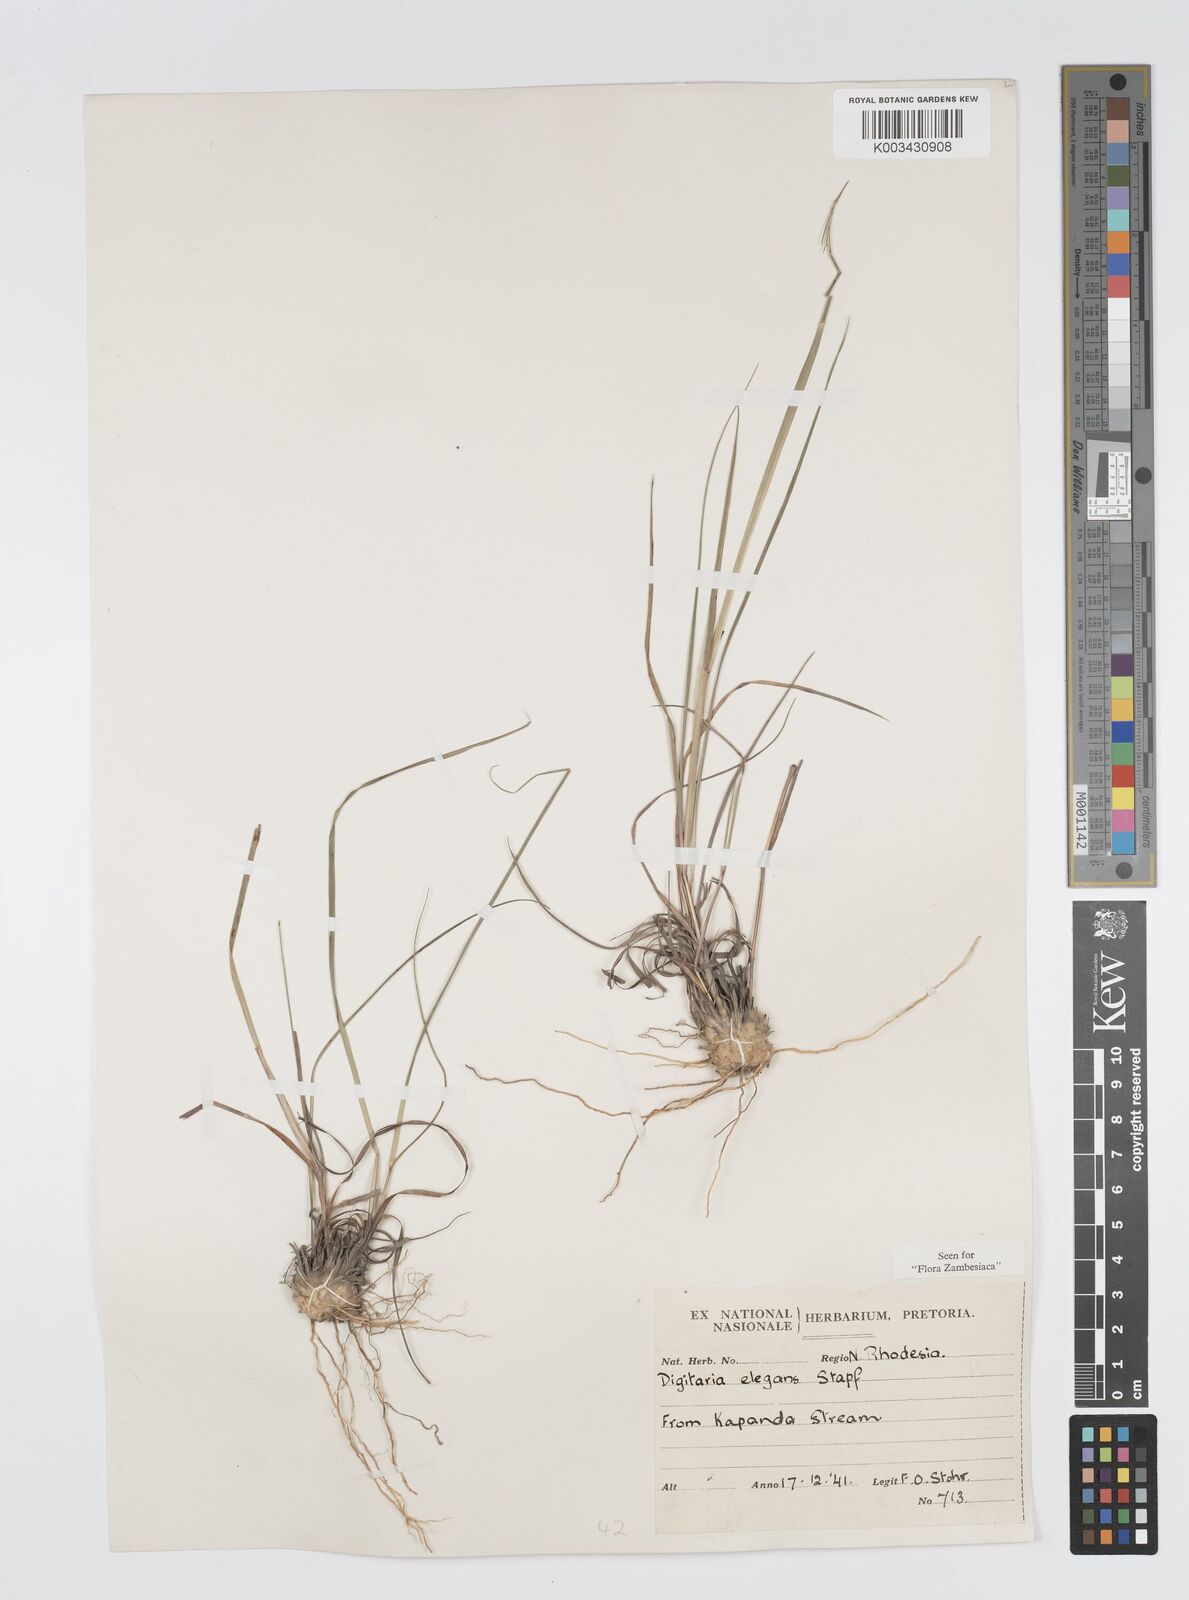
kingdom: Plantae
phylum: Tracheophyta
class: Liliopsida
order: Poales
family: Poaceae
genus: Digitaria
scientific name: Digitaria flaccida
